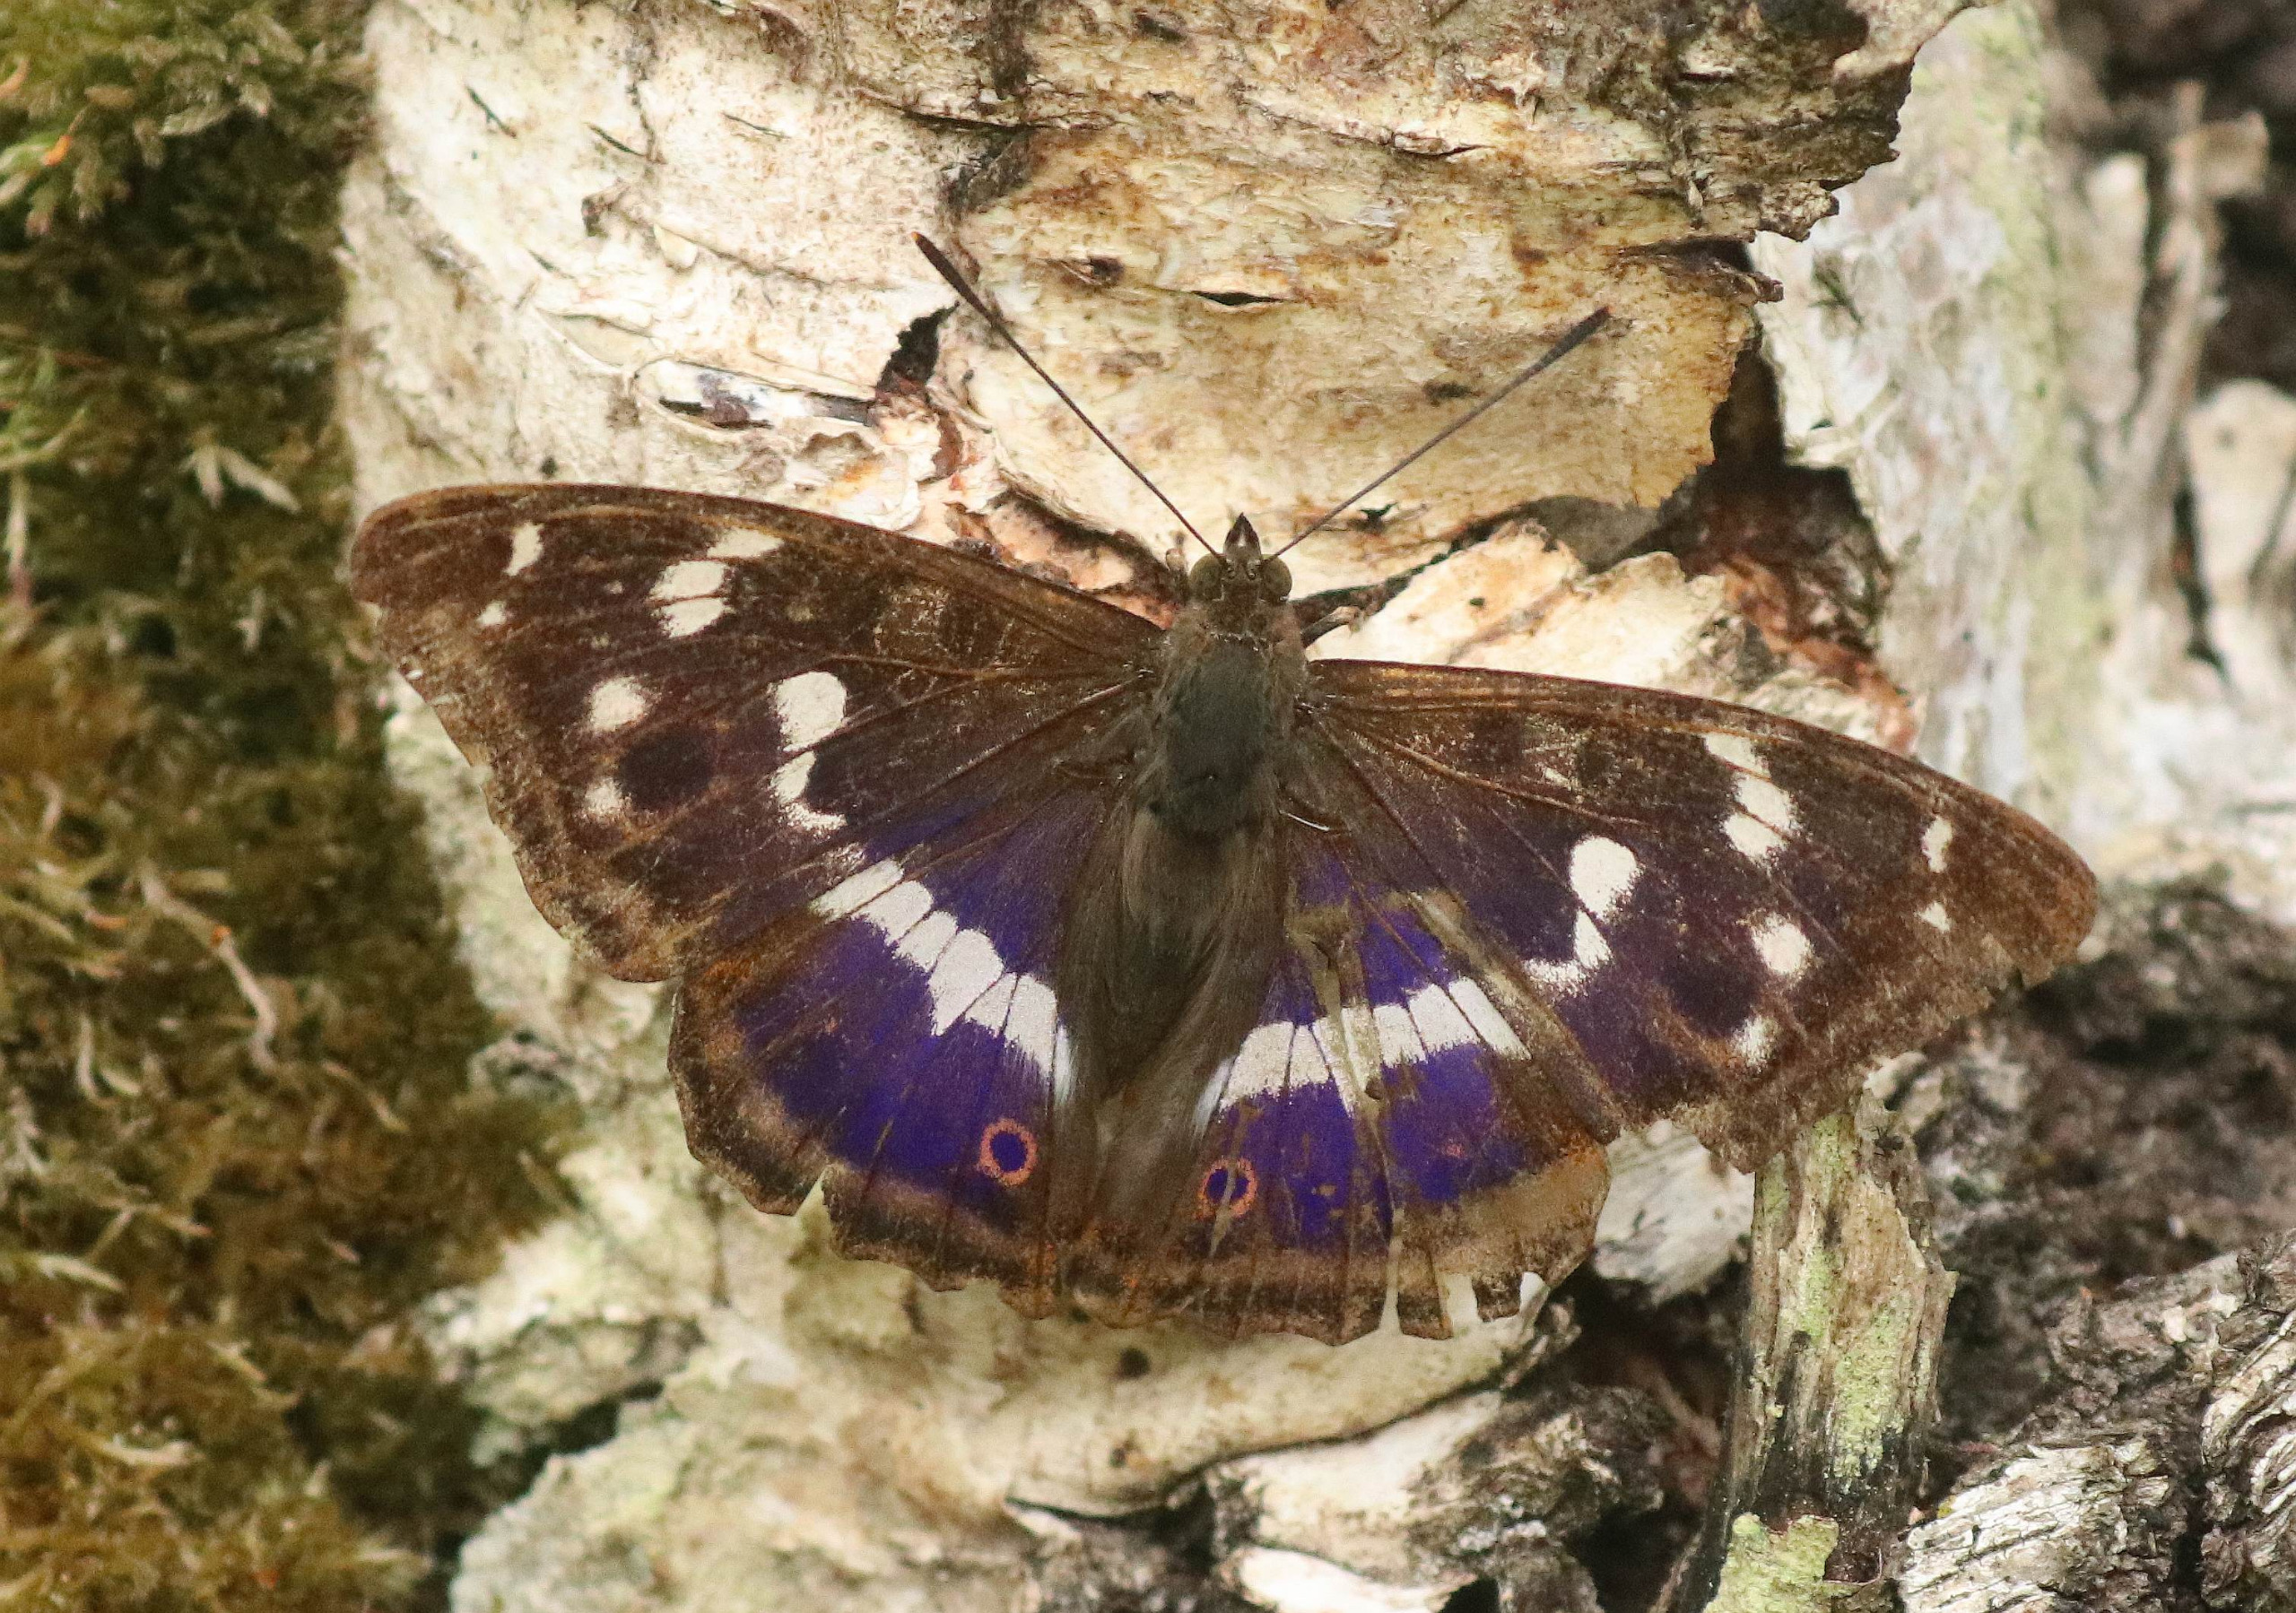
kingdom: Animalia
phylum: Arthropoda
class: Insecta
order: Lepidoptera
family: Nymphalidae
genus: Apatura
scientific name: Apatura iris
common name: Iris
